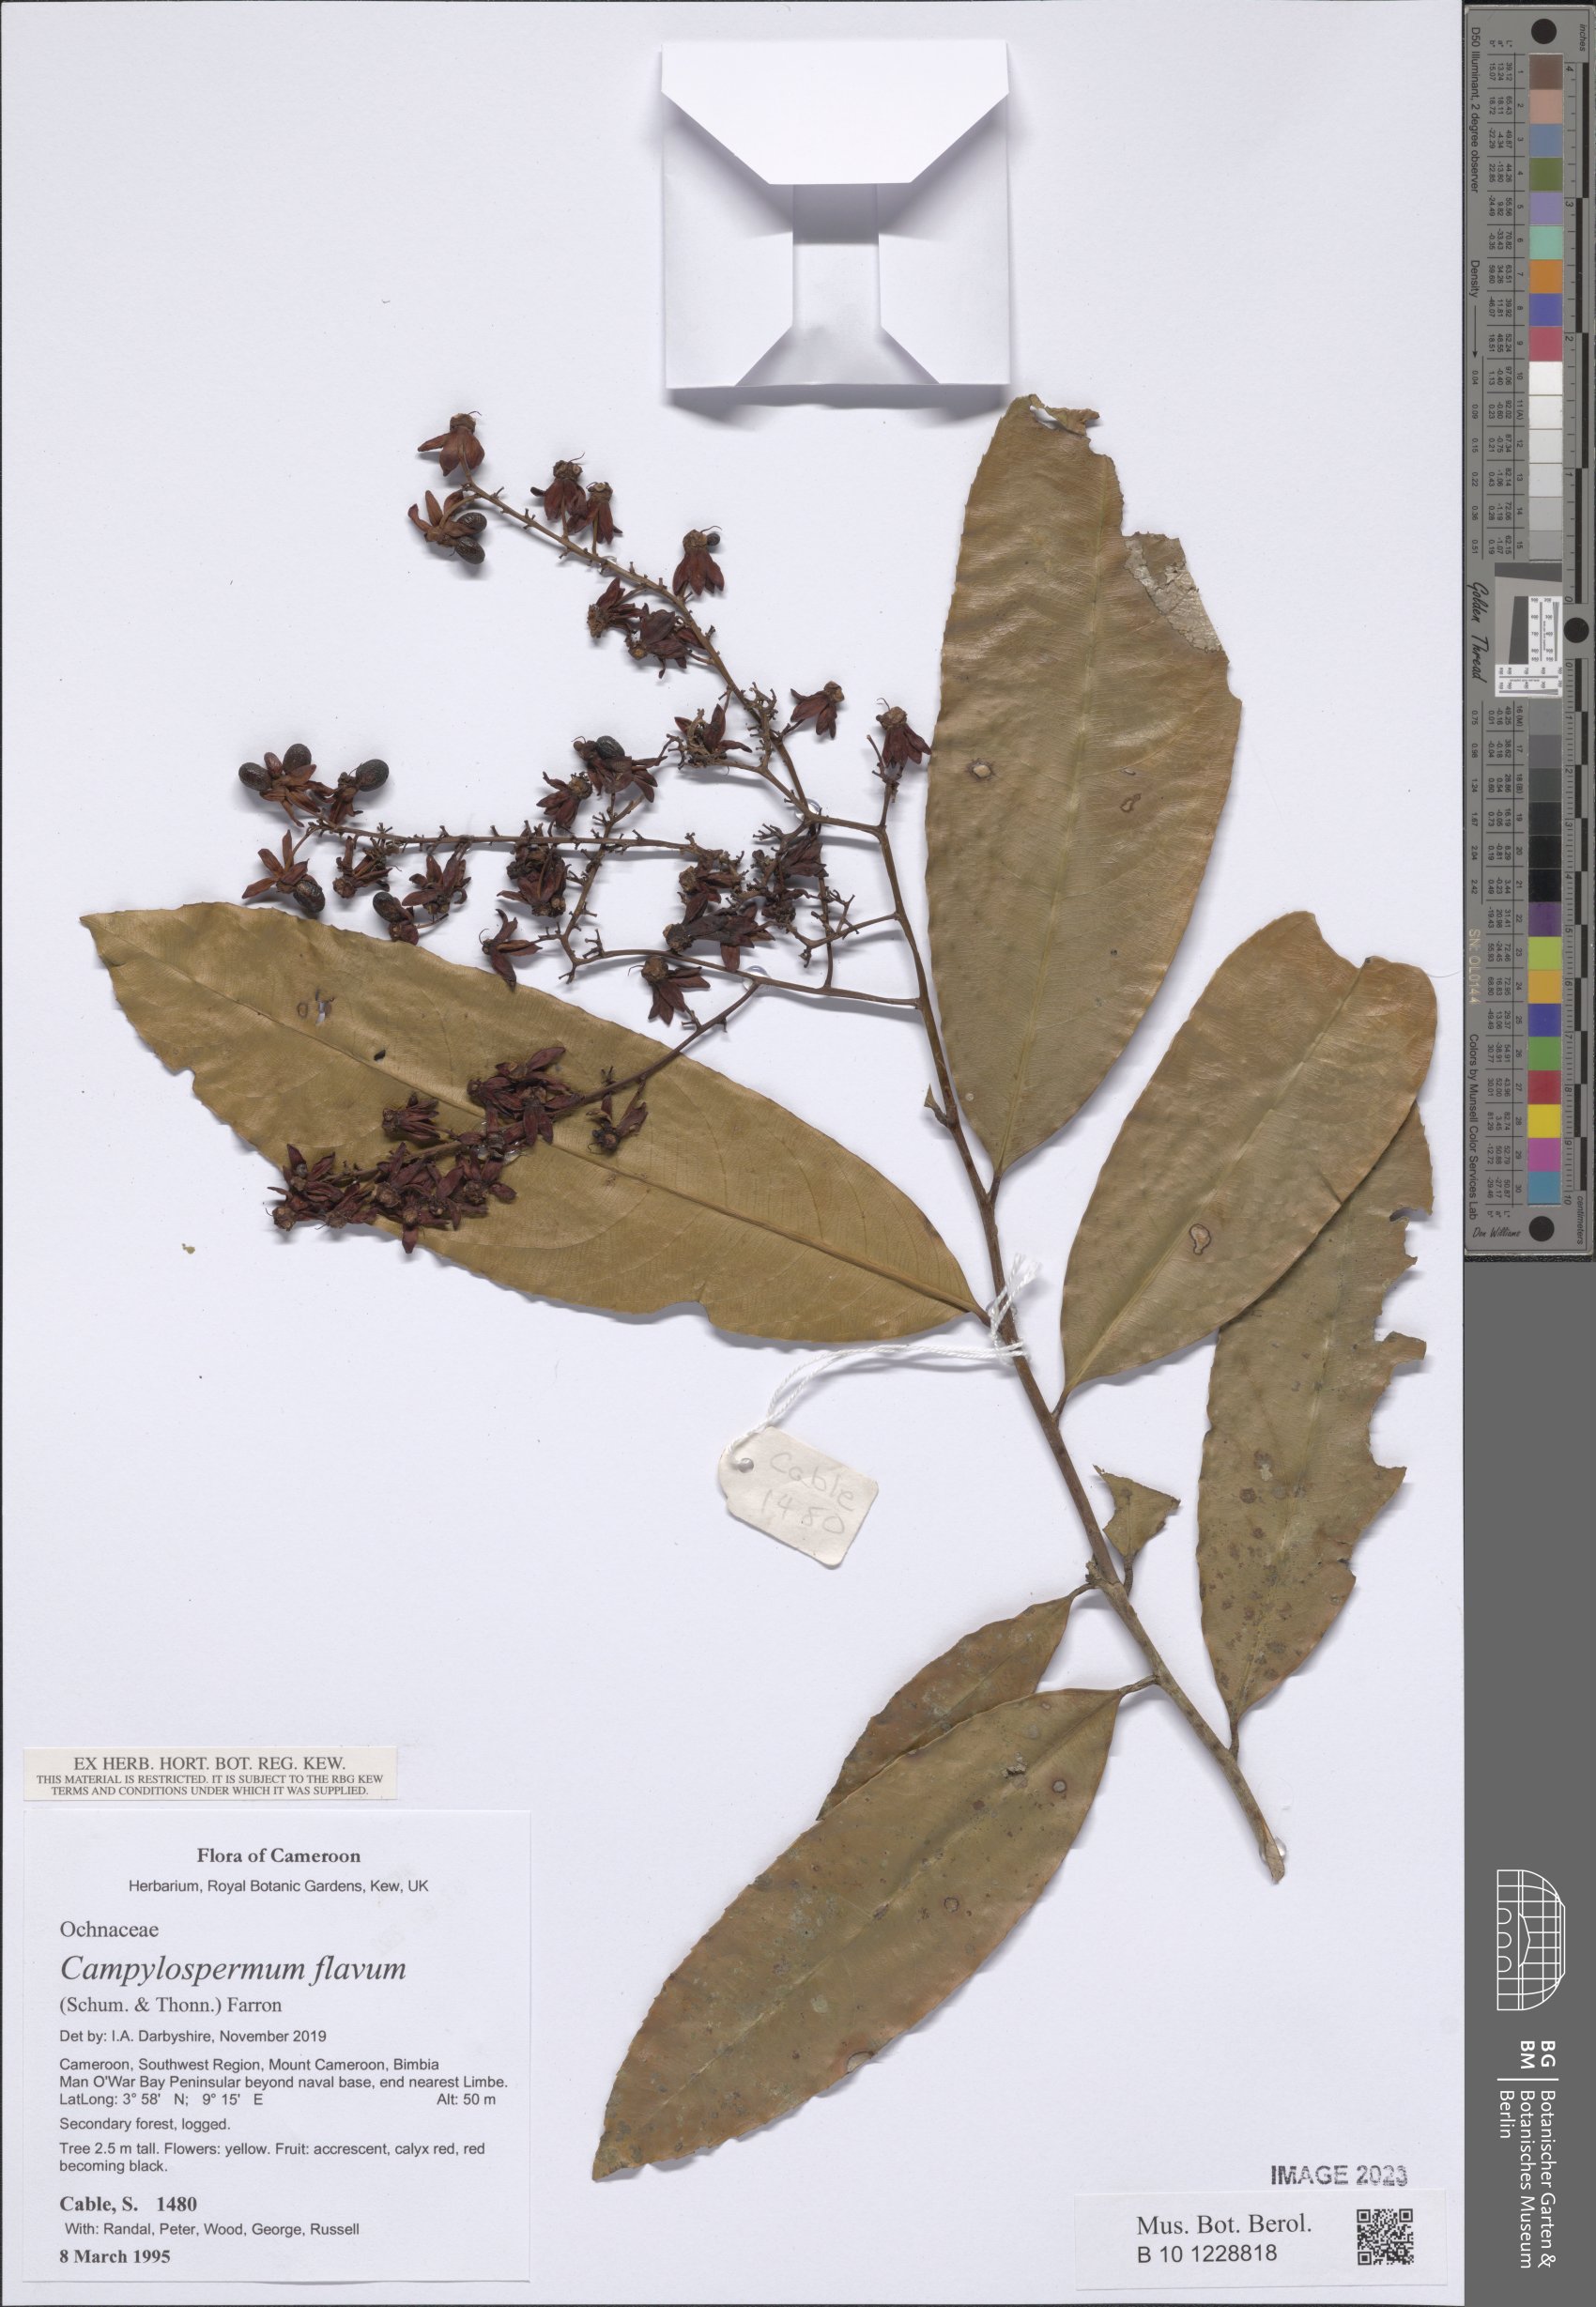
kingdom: Plantae
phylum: Tracheophyta
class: Magnoliopsida
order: Malpighiales
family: Ochnaceae
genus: Campylospermum
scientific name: Campylospermum flavum
